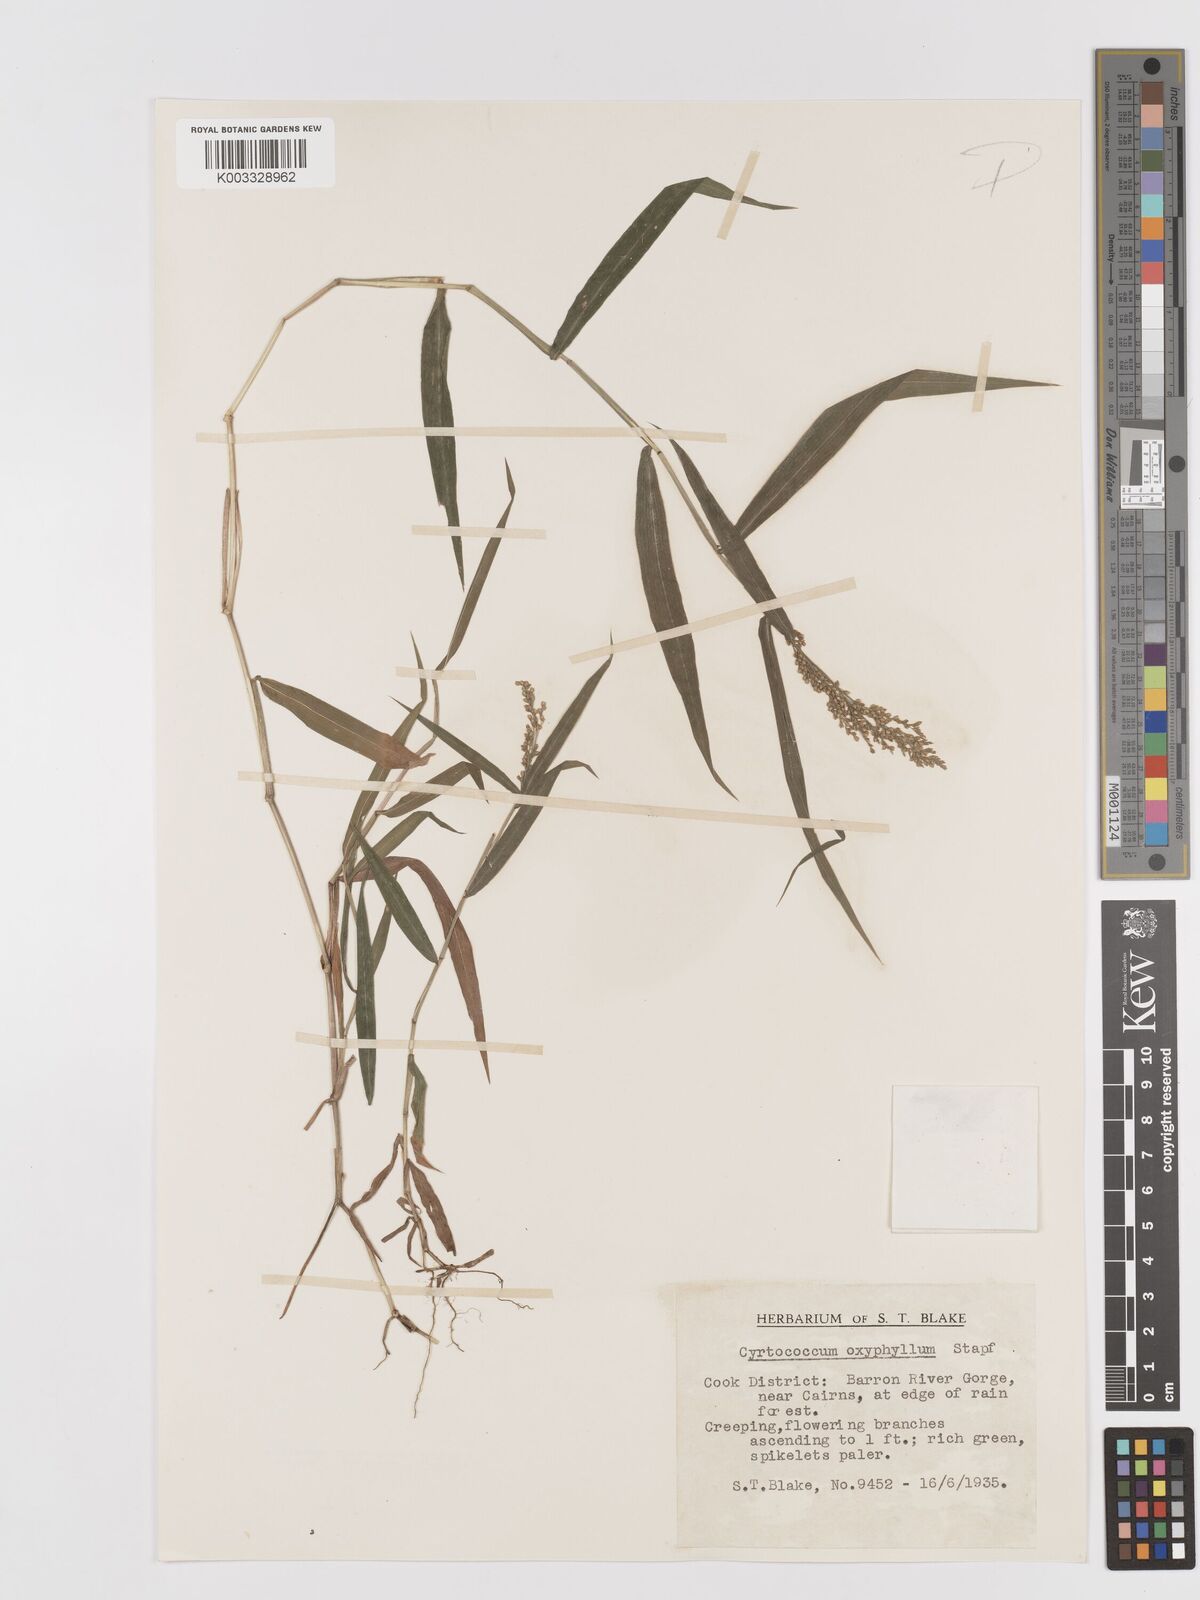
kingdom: Plantae
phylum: Tracheophyta
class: Liliopsida
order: Poales
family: Poaceae
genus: Cyrtococcum
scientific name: Cyrtococcum oxyphyllum
